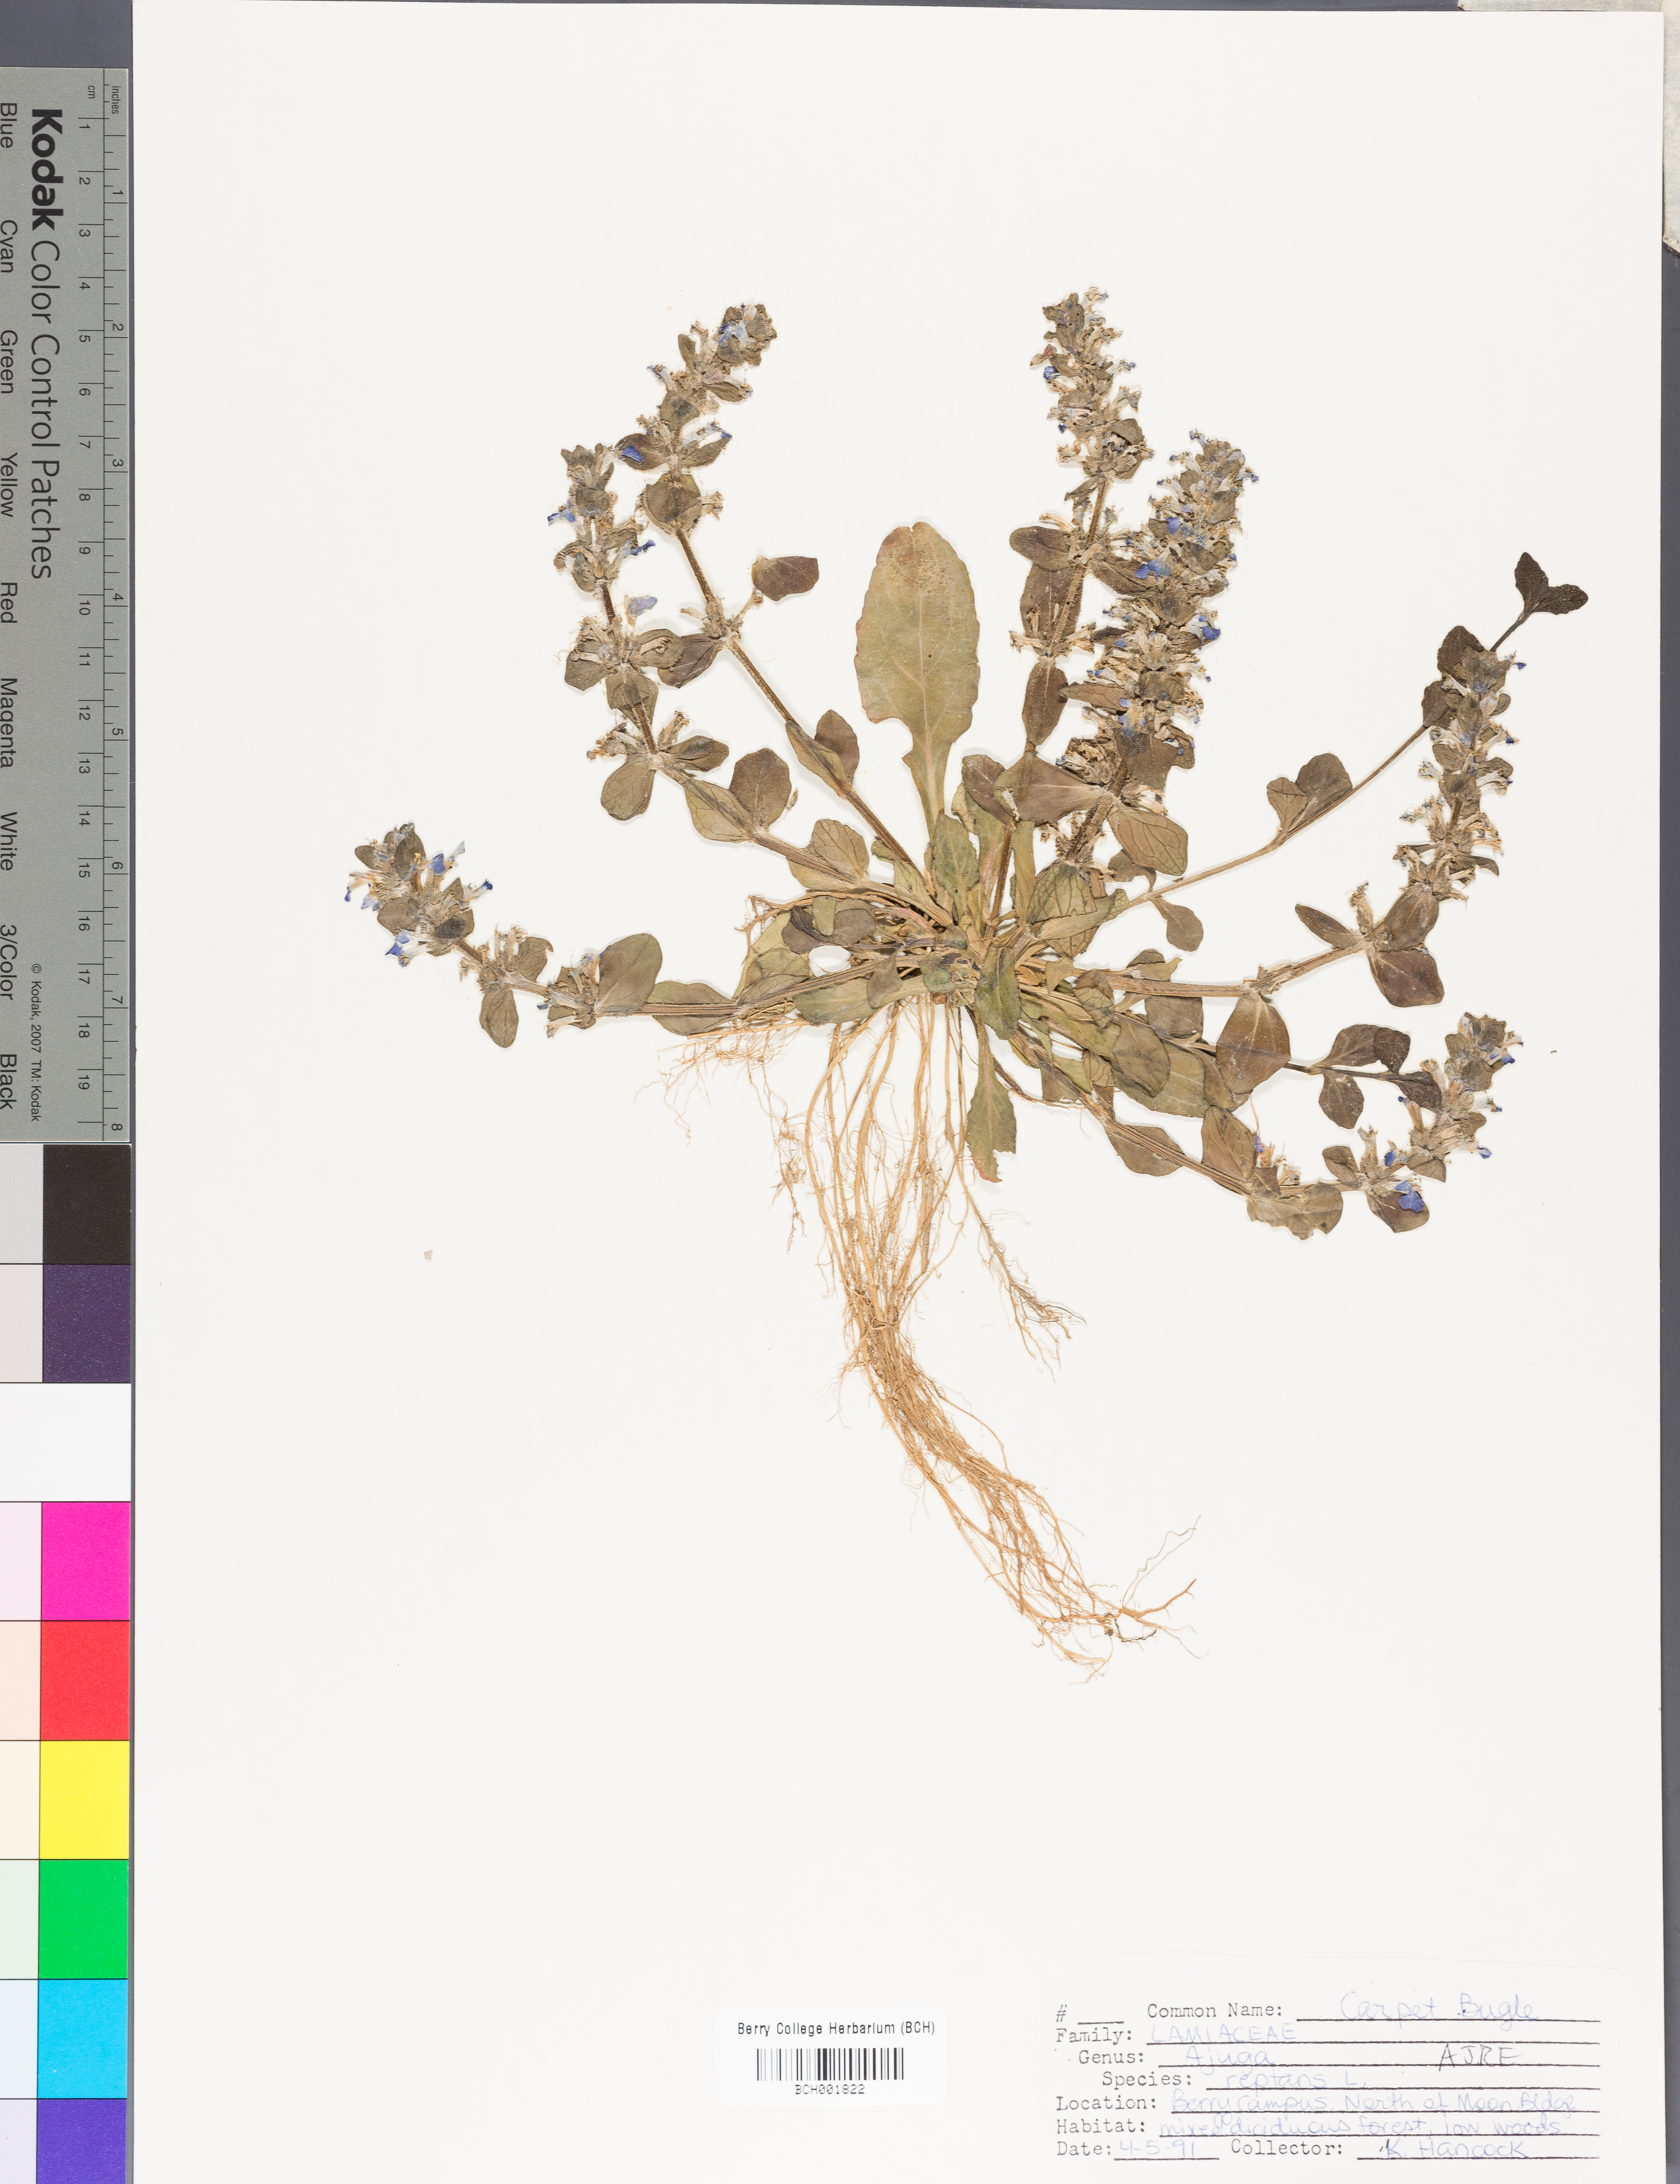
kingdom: Plantae
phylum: Tracheophyta
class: Magnoliopsida
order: Lamiales
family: Lamiaceae
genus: Ajuga
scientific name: Ajuga reptans
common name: Bugle
